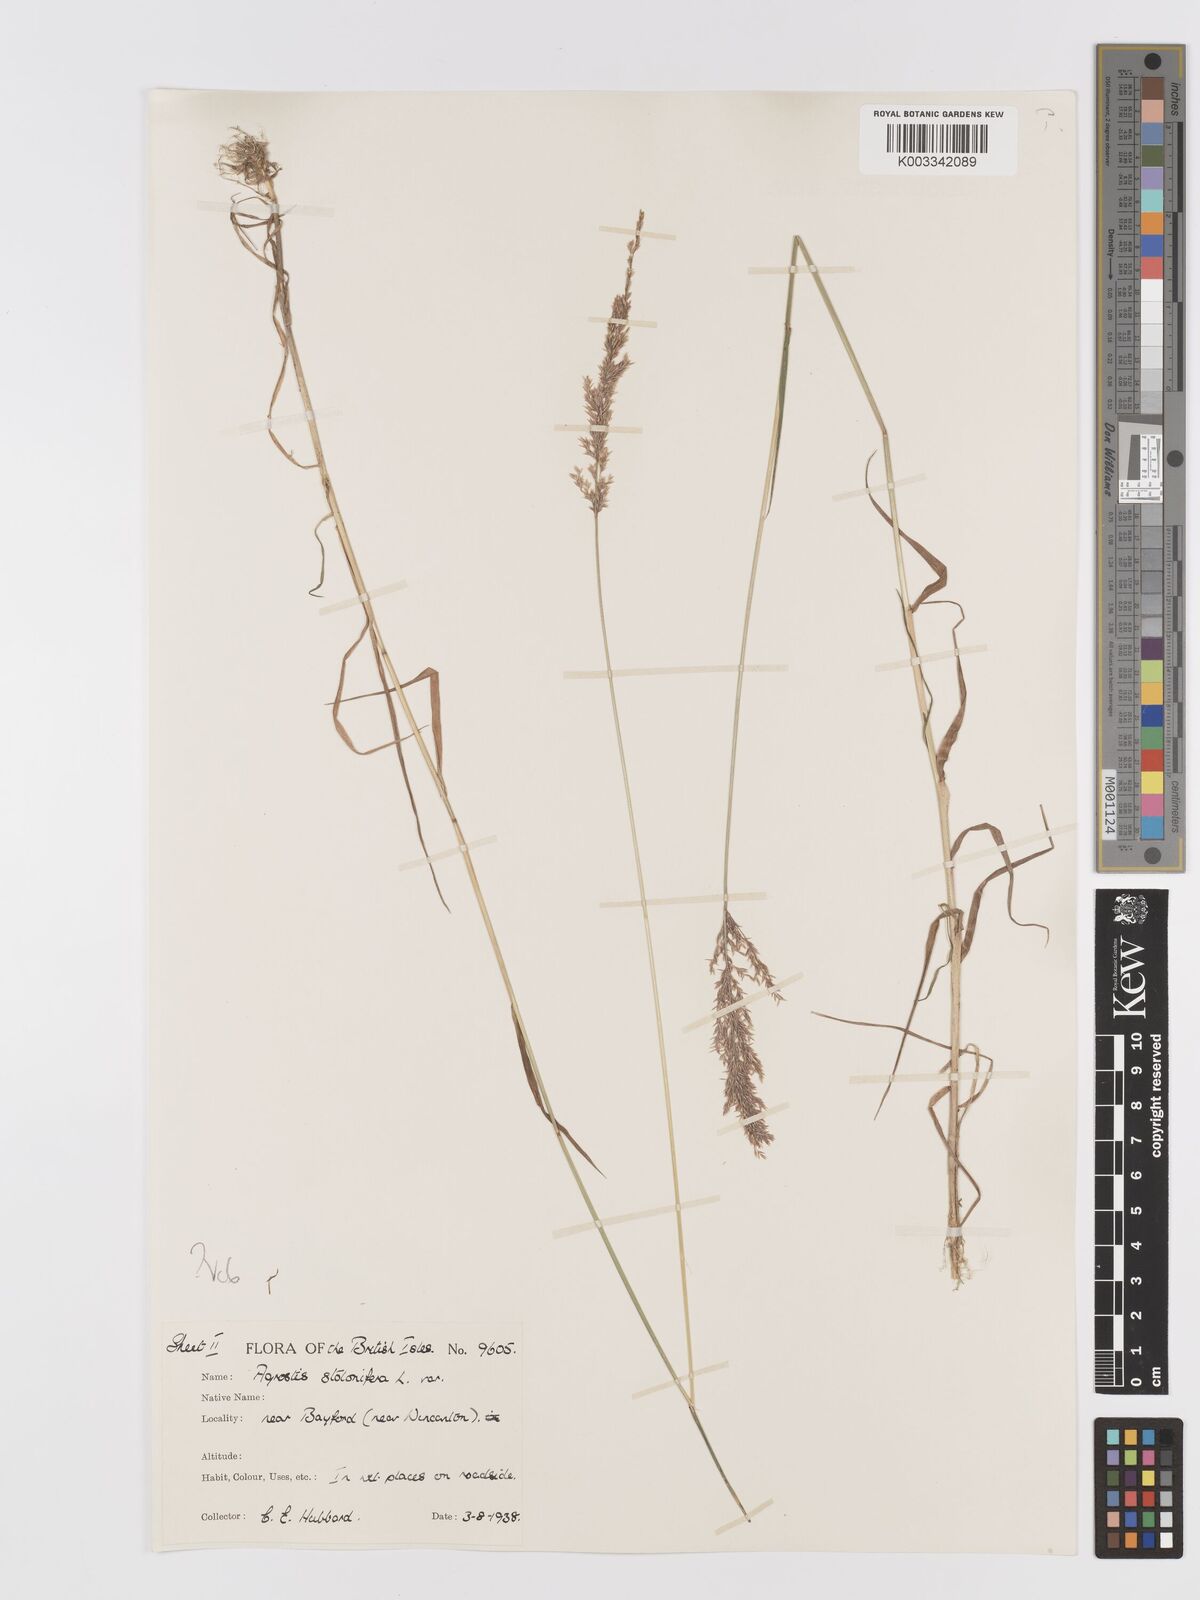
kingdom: Plantae
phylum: Tracheophyta
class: Liliopsida
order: Poales
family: Poaceae
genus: Agrostis
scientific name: Agrostis stolonifera
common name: Creeping bentgrass
